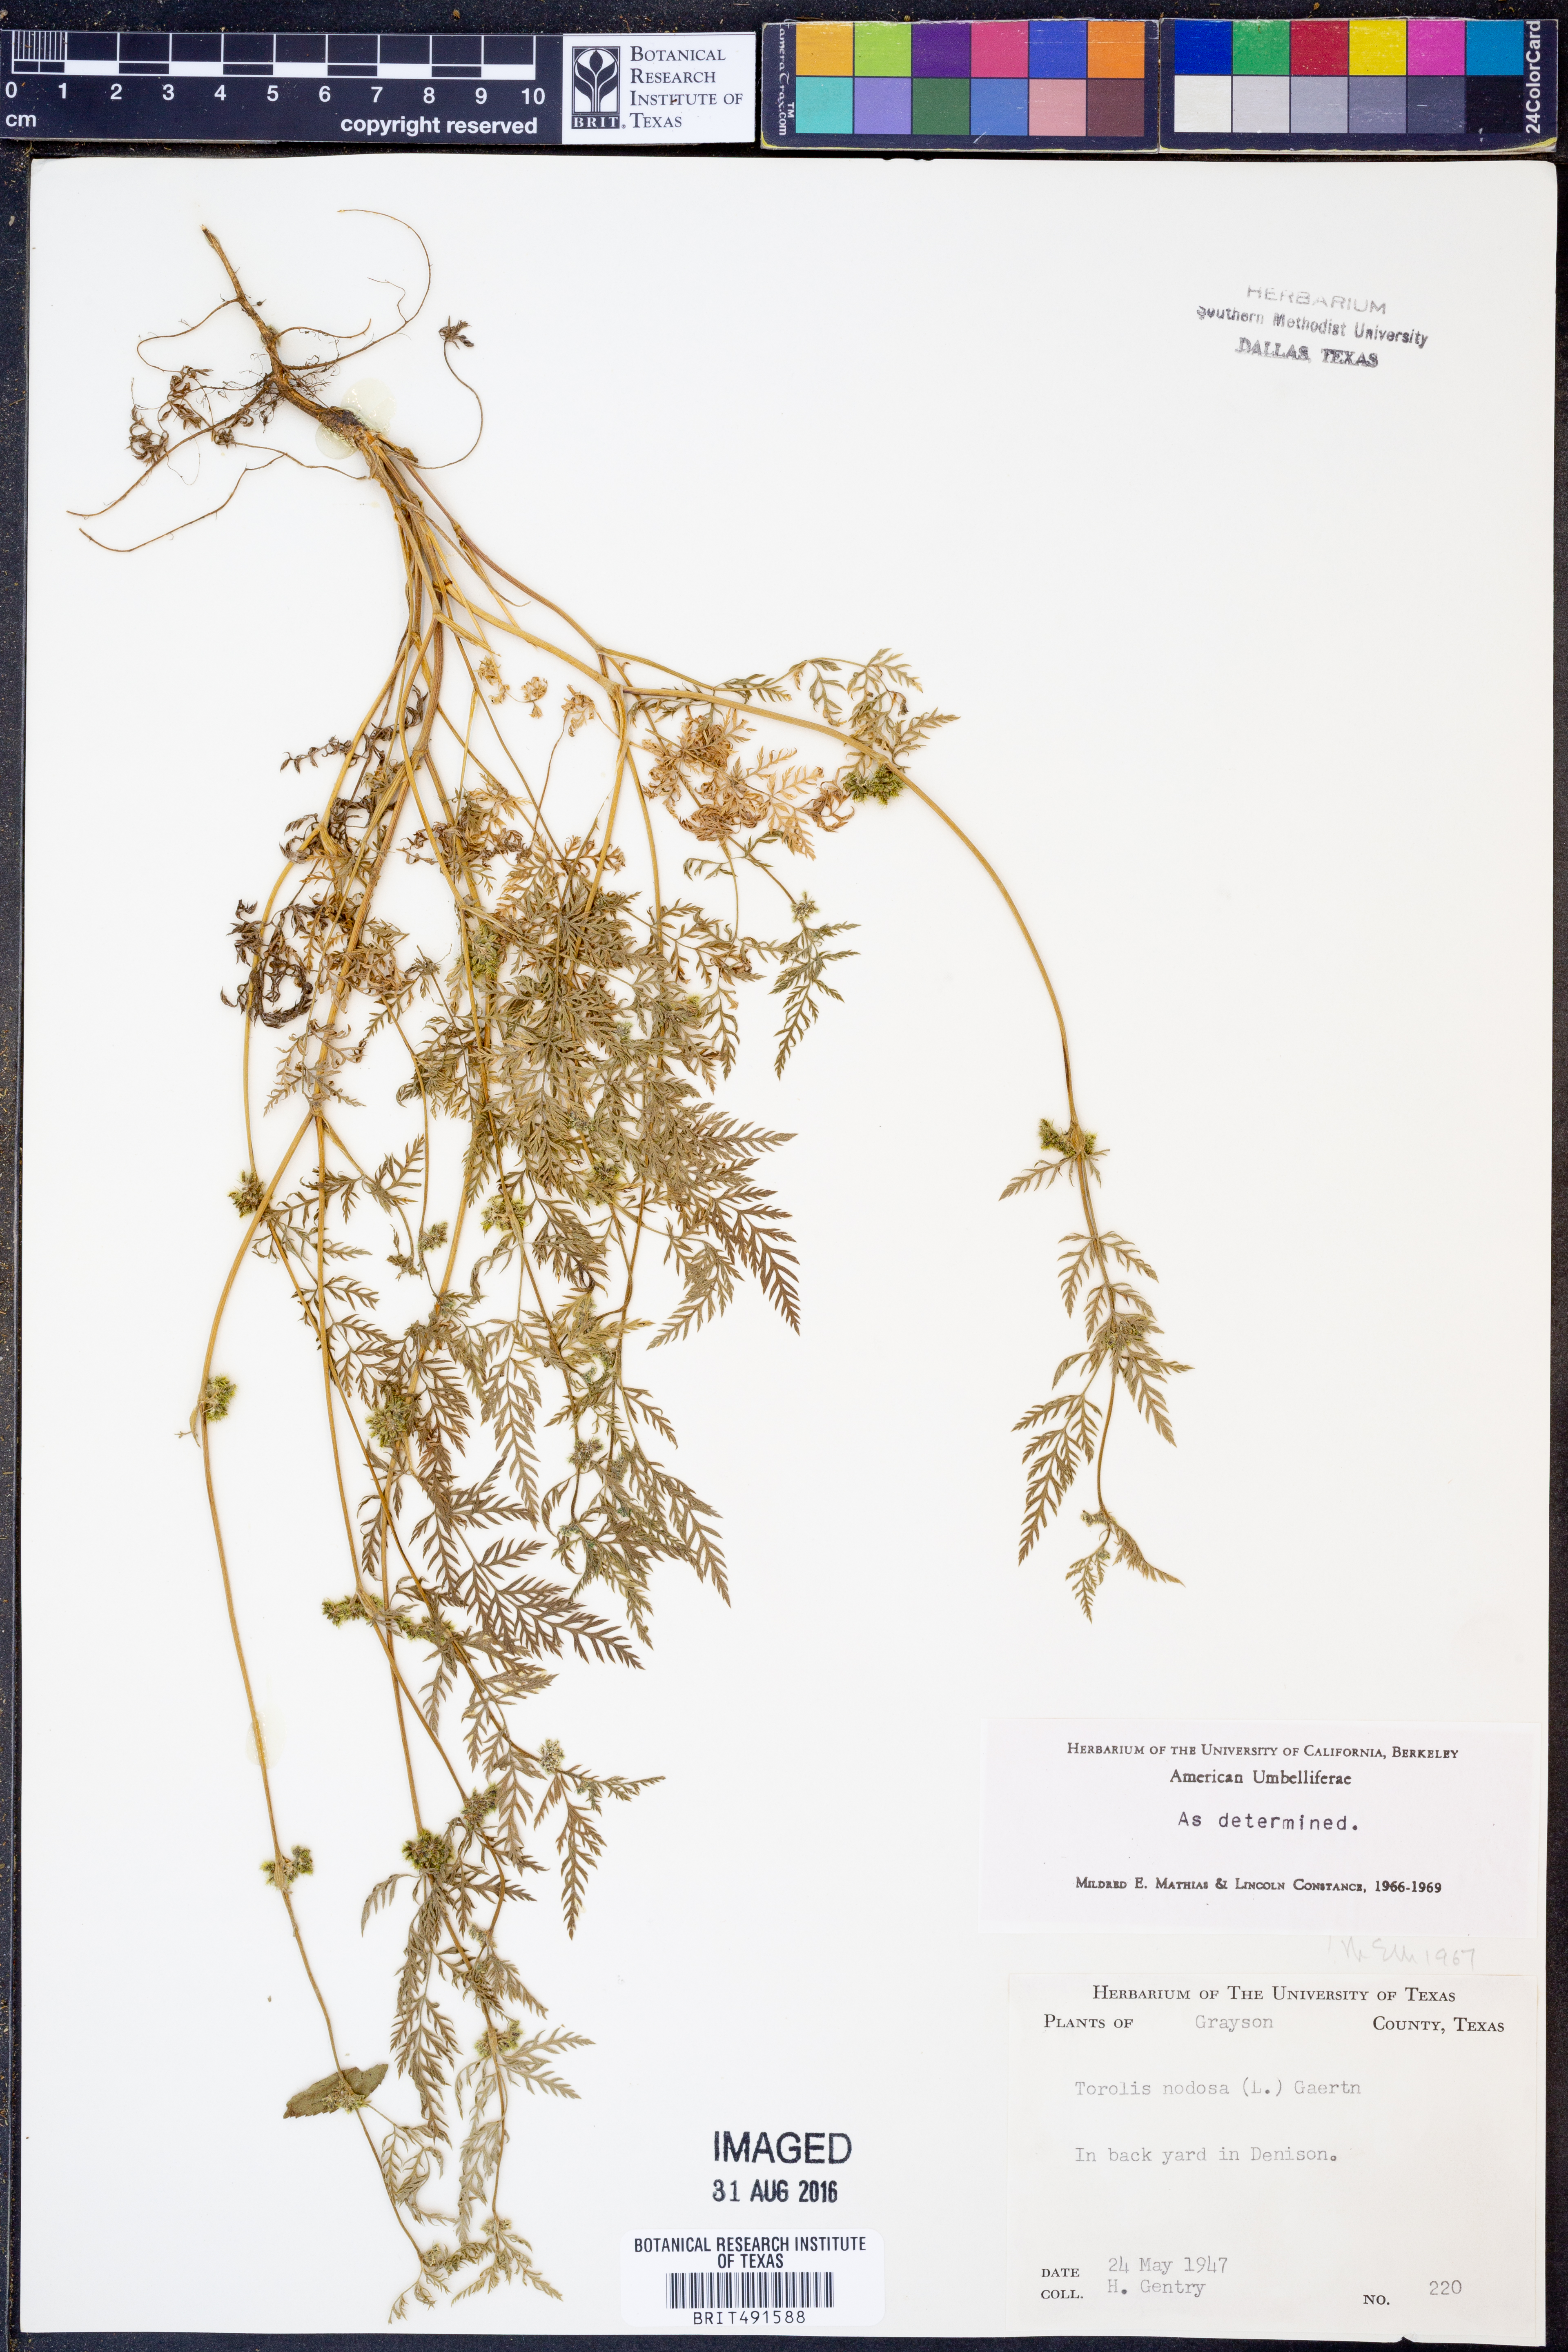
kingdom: Plantae
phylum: Tracheophyta
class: Magnoliopsida
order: Apiales
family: Apiaceae
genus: Torilis
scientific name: Torilis nodosa
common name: Knotted hedge-parsley
